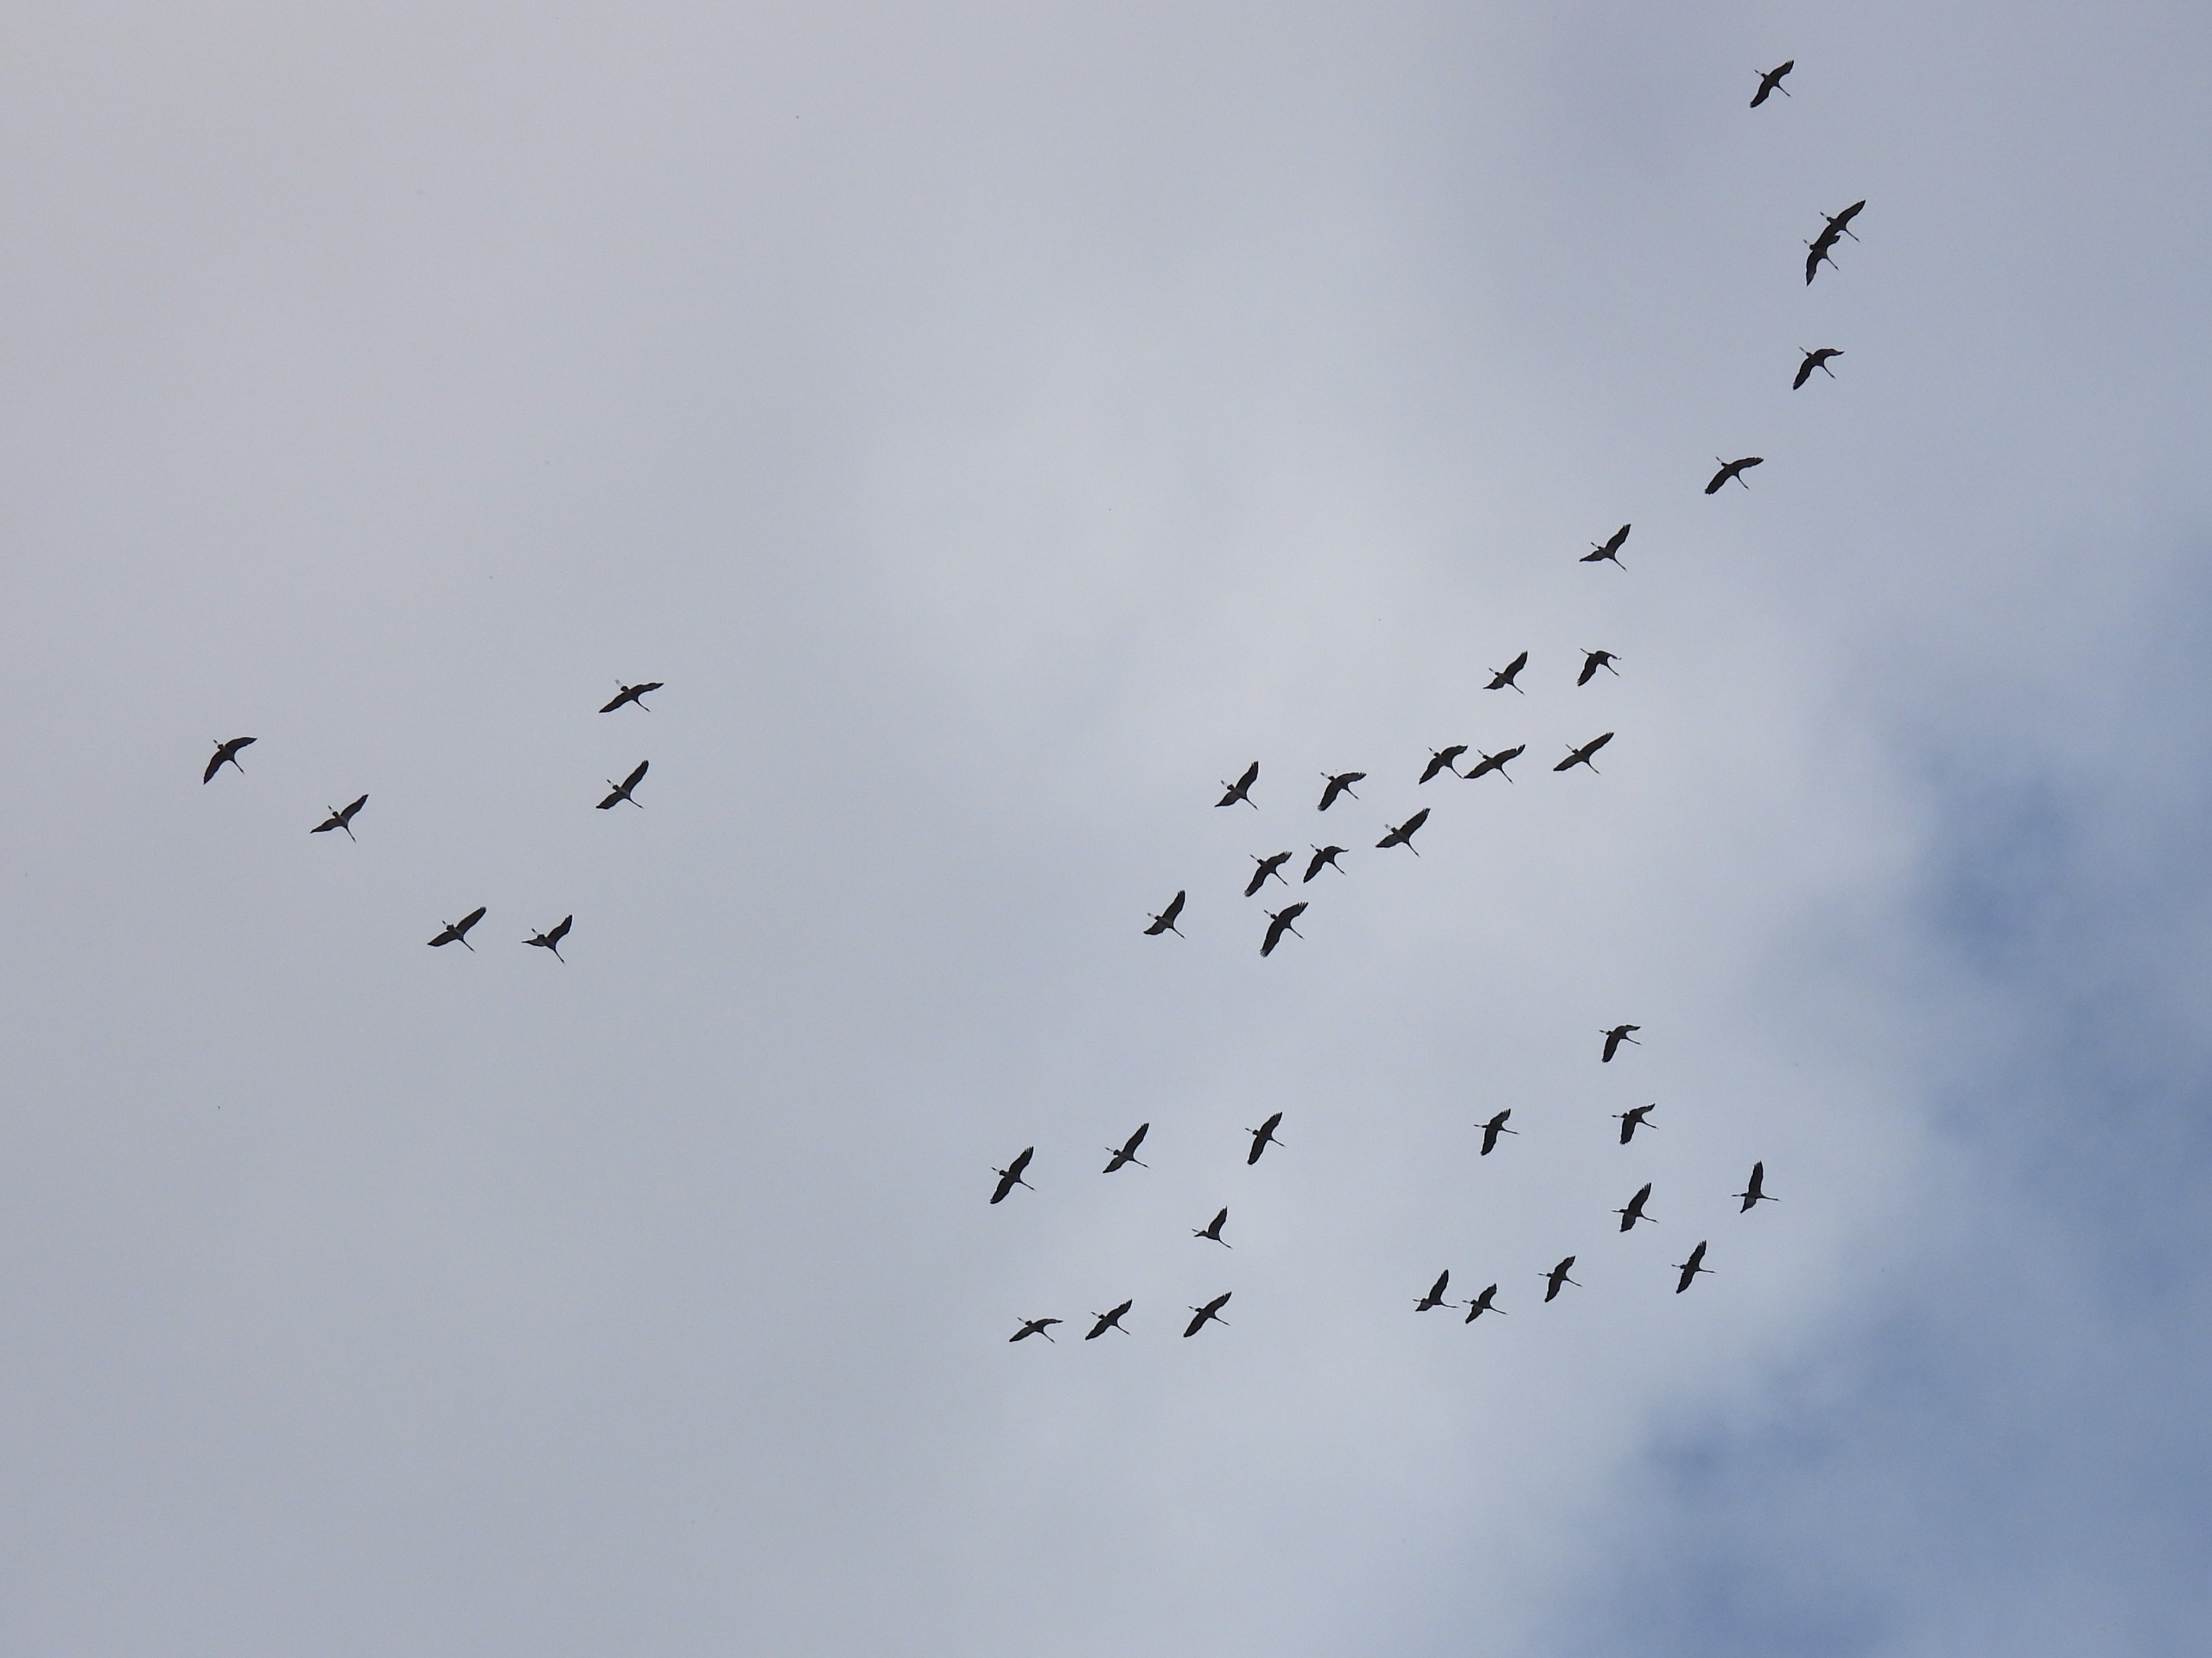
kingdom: Animalia
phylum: Chordata
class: Aves
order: Gruiformes
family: Gruidae
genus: Grus
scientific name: Grus grus
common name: Trane
